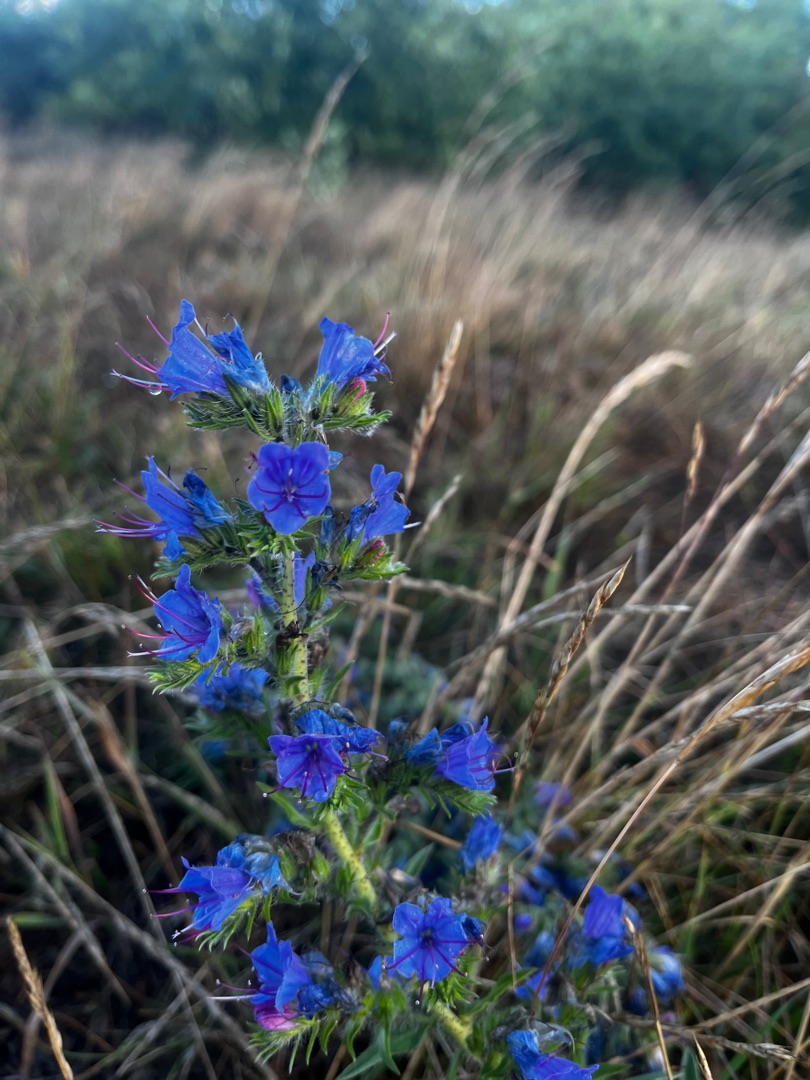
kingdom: Plantae
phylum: Tracheophyta
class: Magnoliopsida
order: Boraginales
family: Boraginaceae
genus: Echium
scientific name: Echium vulgare
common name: Slangehoved
